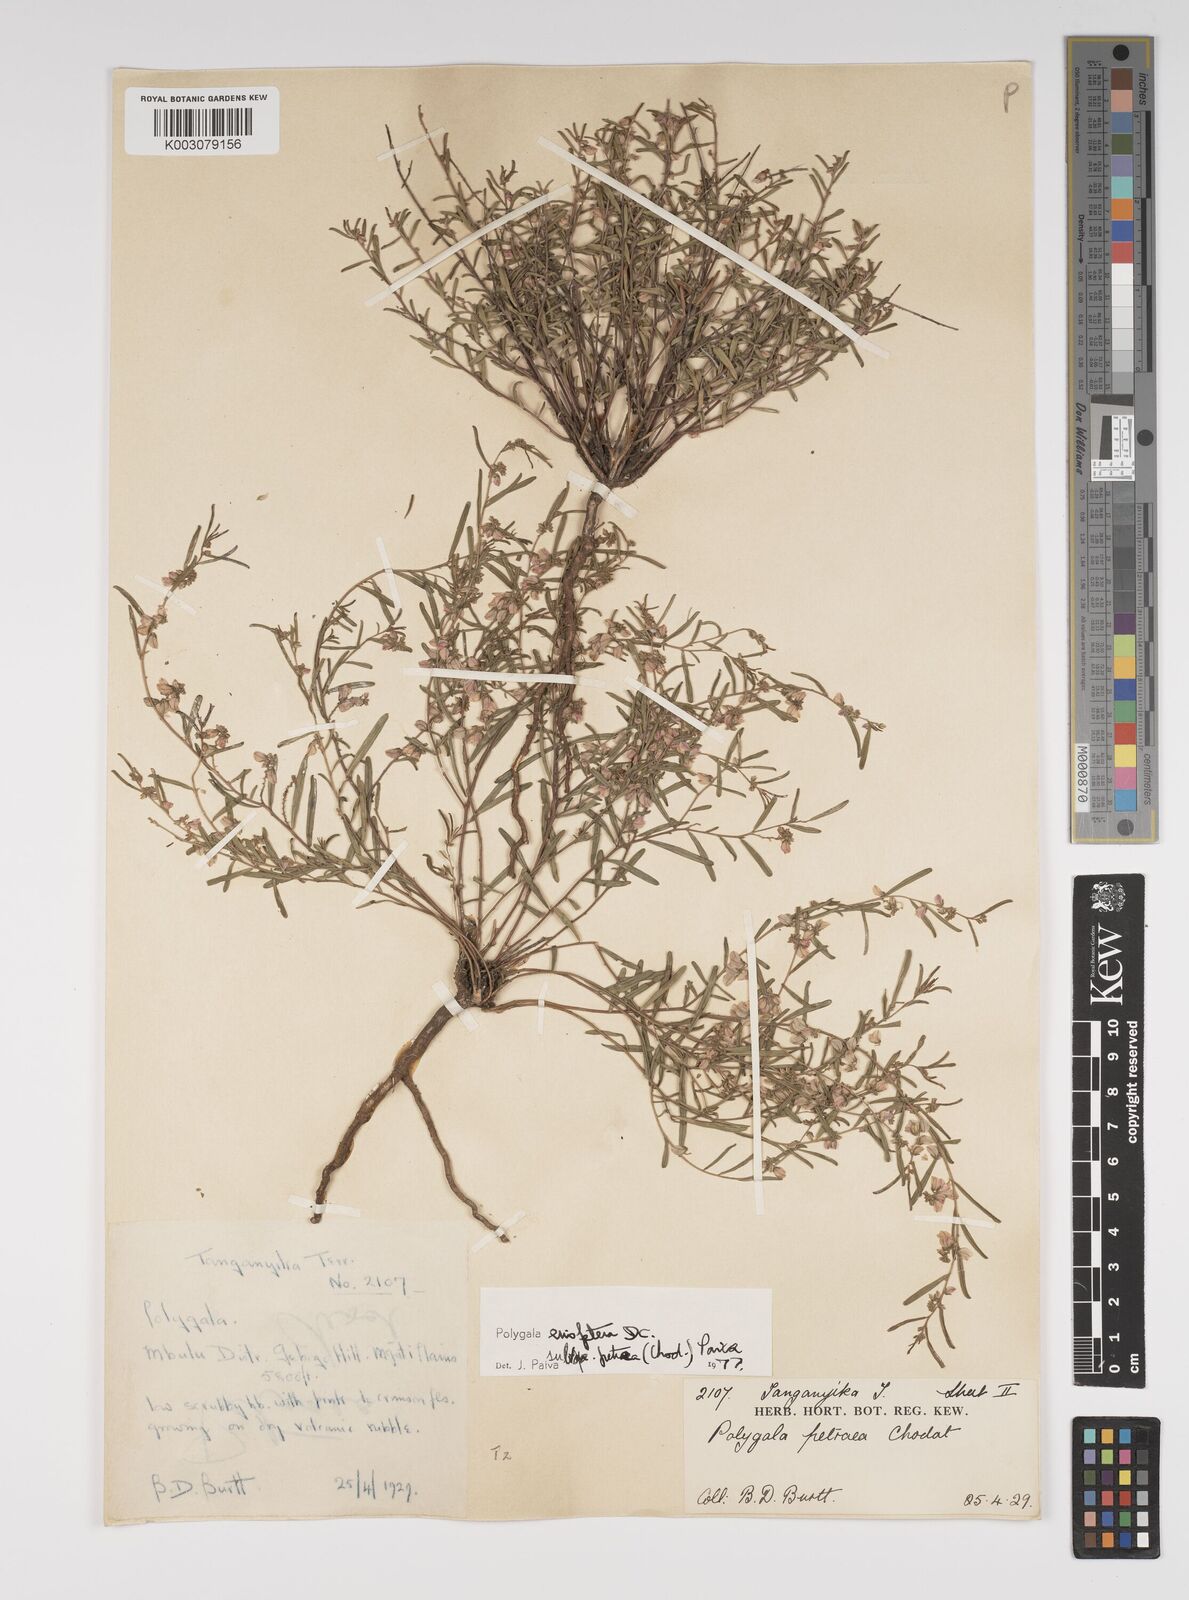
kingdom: Plantae
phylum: Tracheophyta
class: Magnoliopsida
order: Fabales
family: Polygalaceae
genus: Polygala
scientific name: Polygala erioptera
